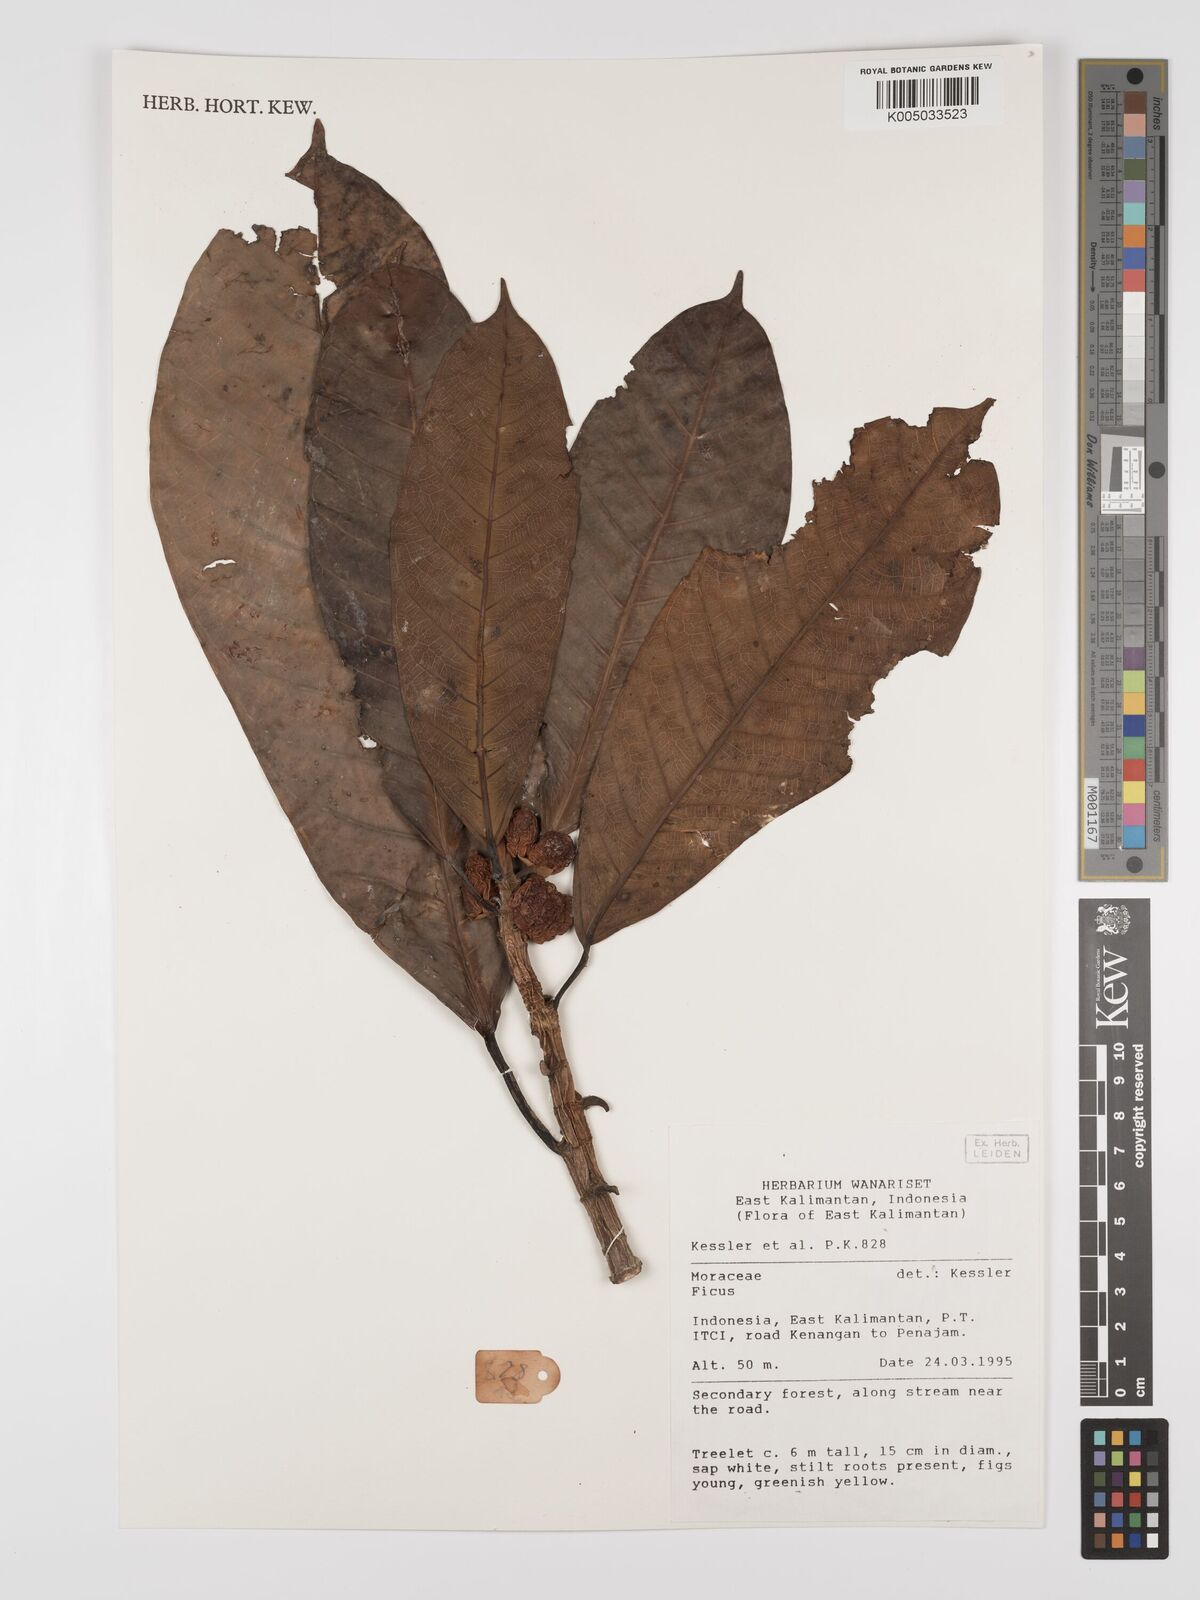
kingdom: Plantae
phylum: Tracheophyta
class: Magnoliopsida
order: Rosales
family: Moraceae
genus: Ficus
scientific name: Ficus
